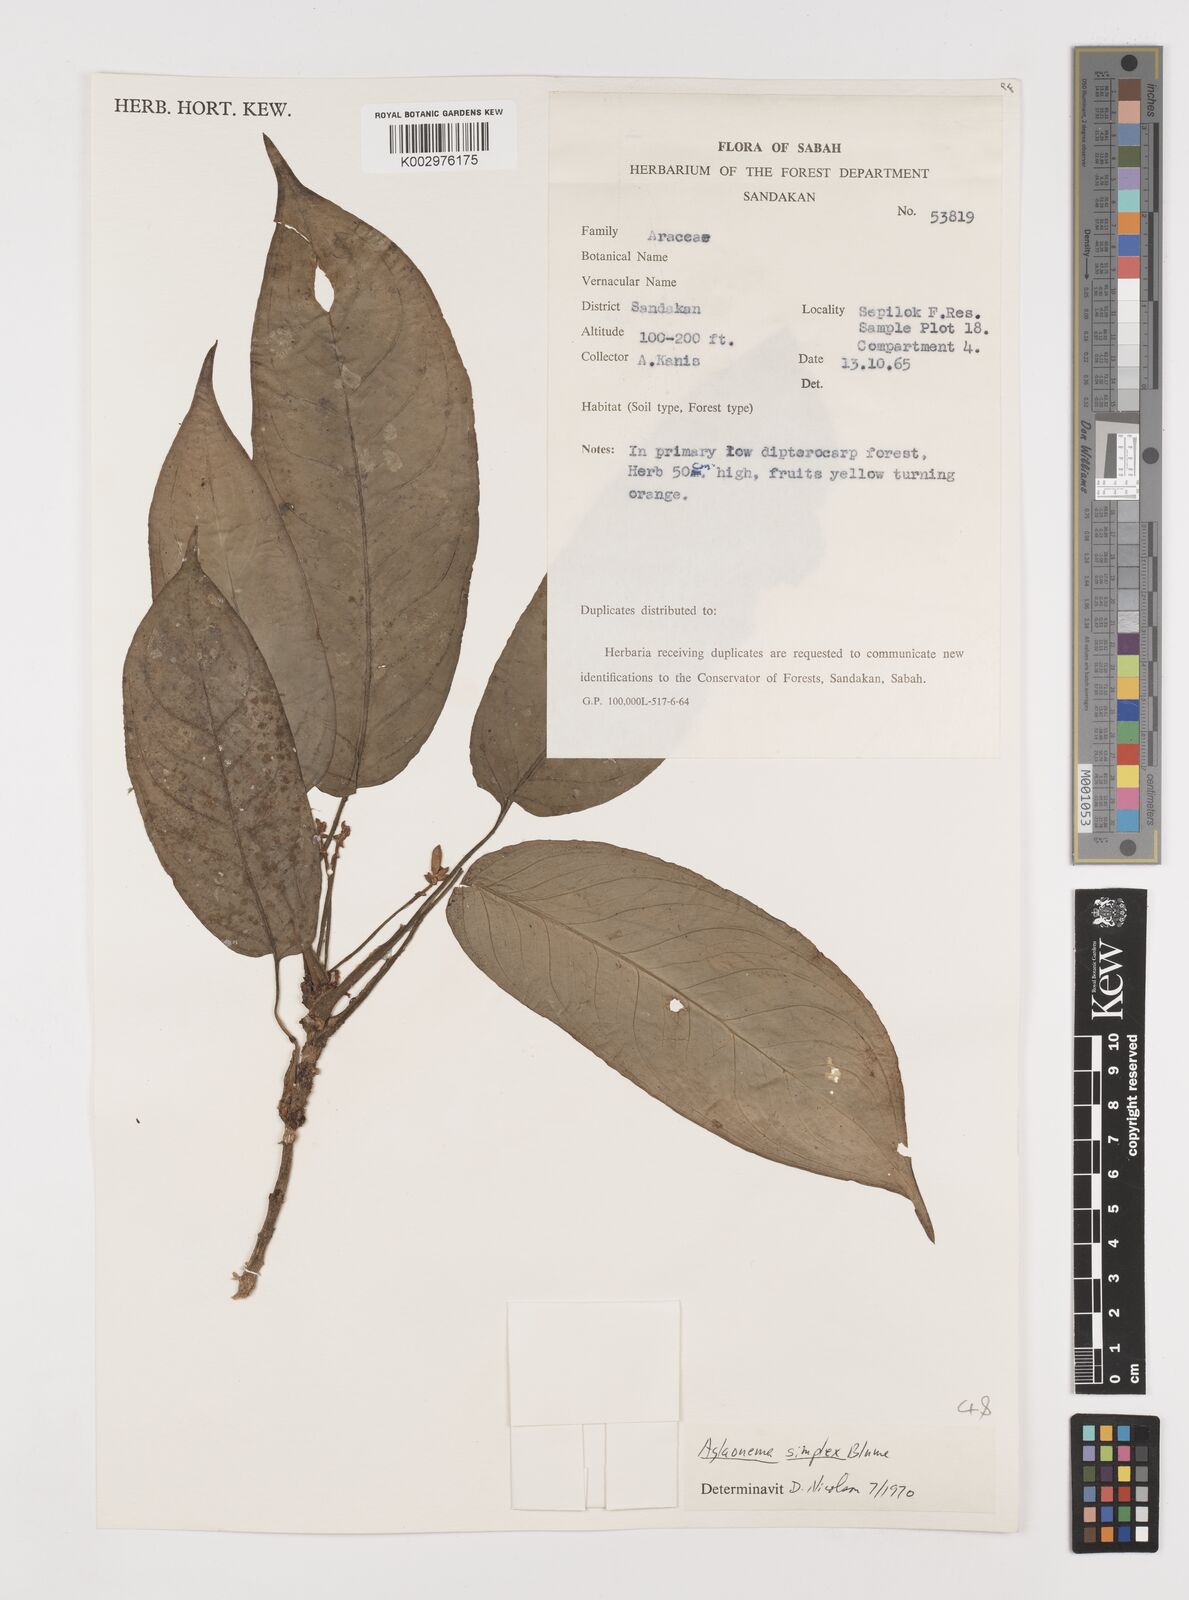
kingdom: Plantae
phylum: Tracheophyta
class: Liliopsida
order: Alismatales
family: Araceae
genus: Aglaonema
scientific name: Aglaonema simplex
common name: Malayan-sword
